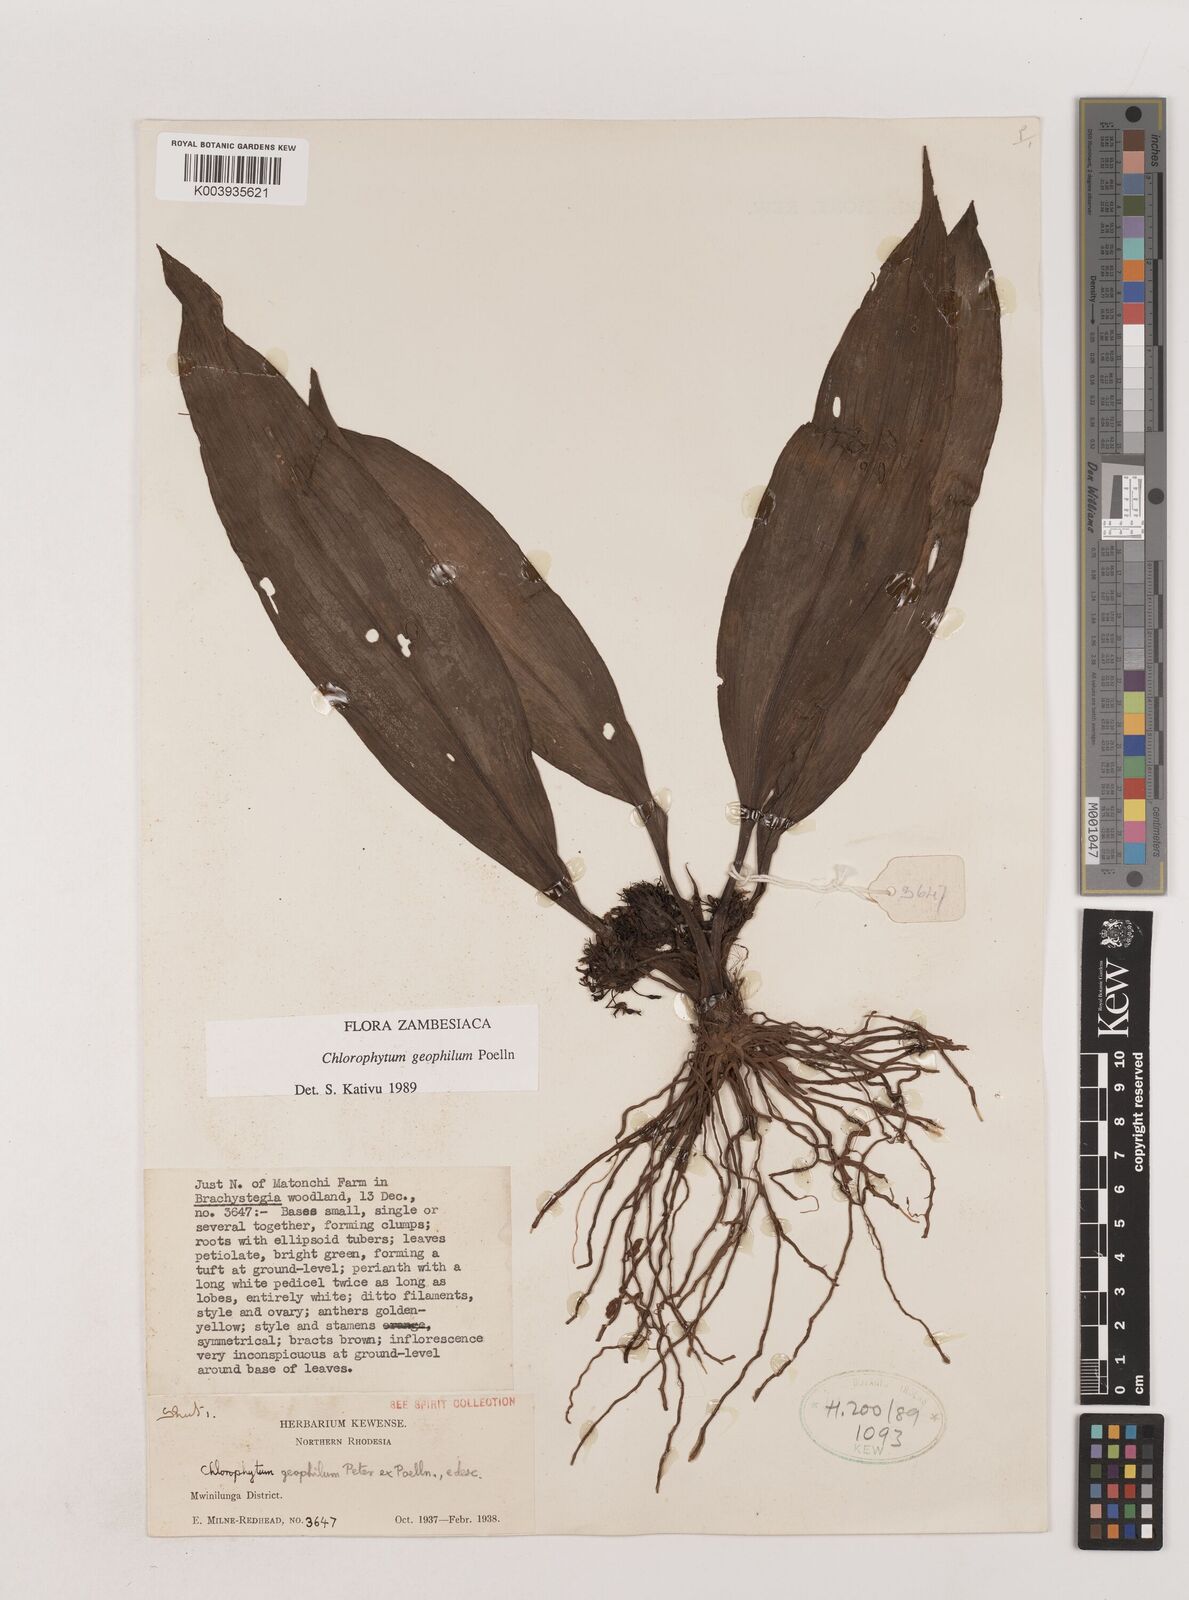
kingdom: Plantae
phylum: Tracheophyta
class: Liliopsida
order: Asparagales
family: Asparagaceae
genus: Chlorophytum
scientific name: Chlorophytum geophilum
